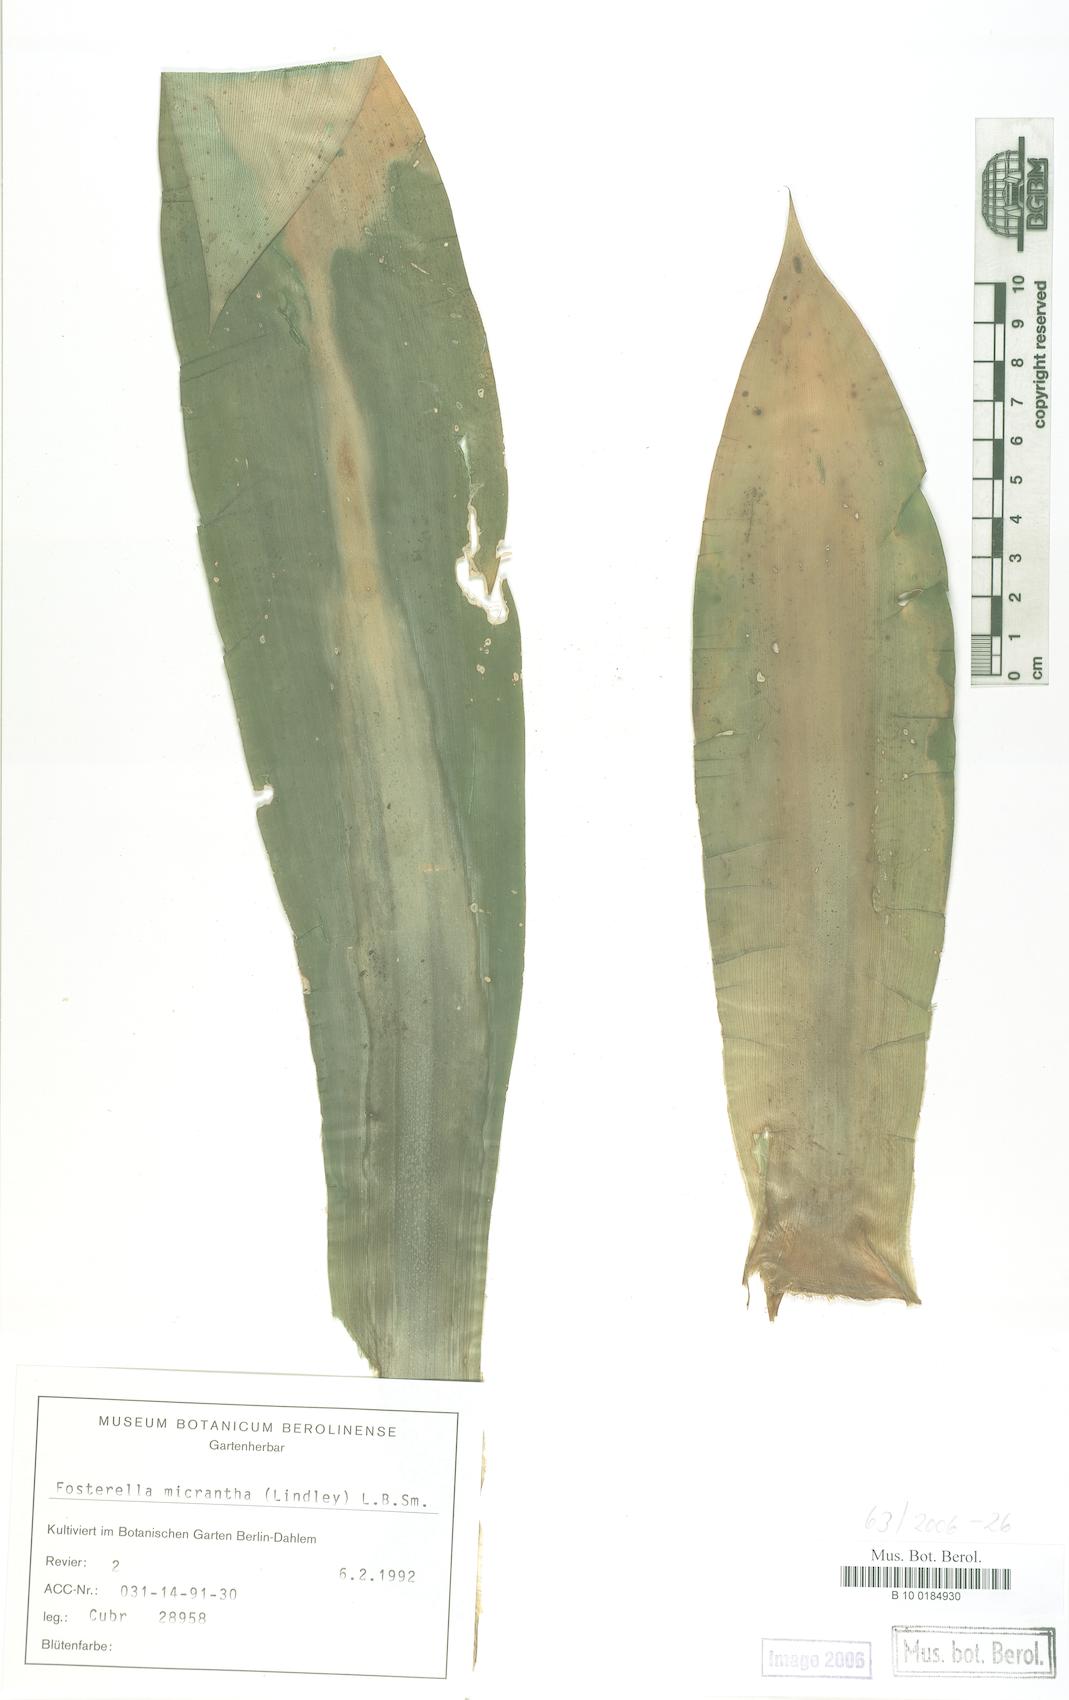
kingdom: Plantae
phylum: Tracheophyta
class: Liliopsida
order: Poales
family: Bromeliaceae
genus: Fosterella
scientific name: Fosterella micrantha
